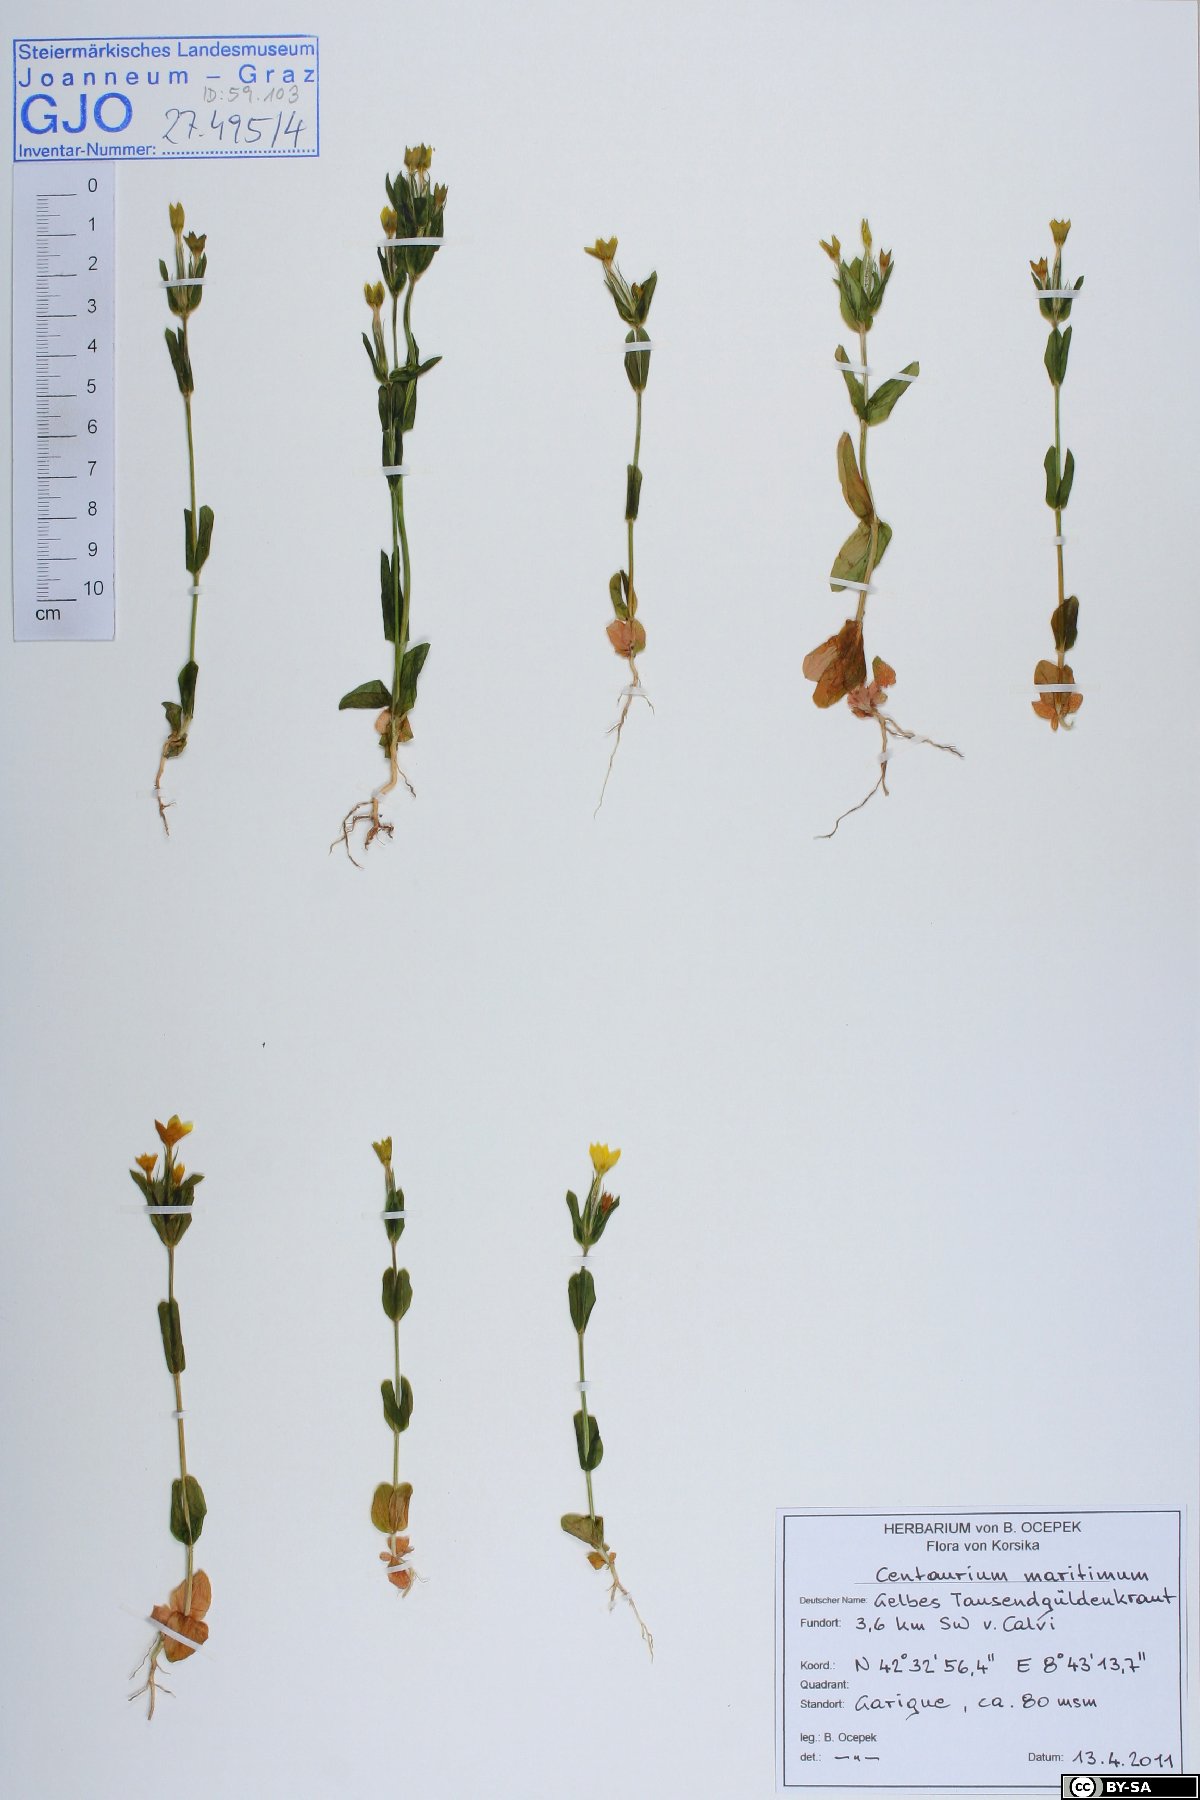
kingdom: Plantae
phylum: Tracheophyta
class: Magnoliopsida
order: Gentianales
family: Gentianaceae
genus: Centaurium
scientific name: Centaurium maritimum
